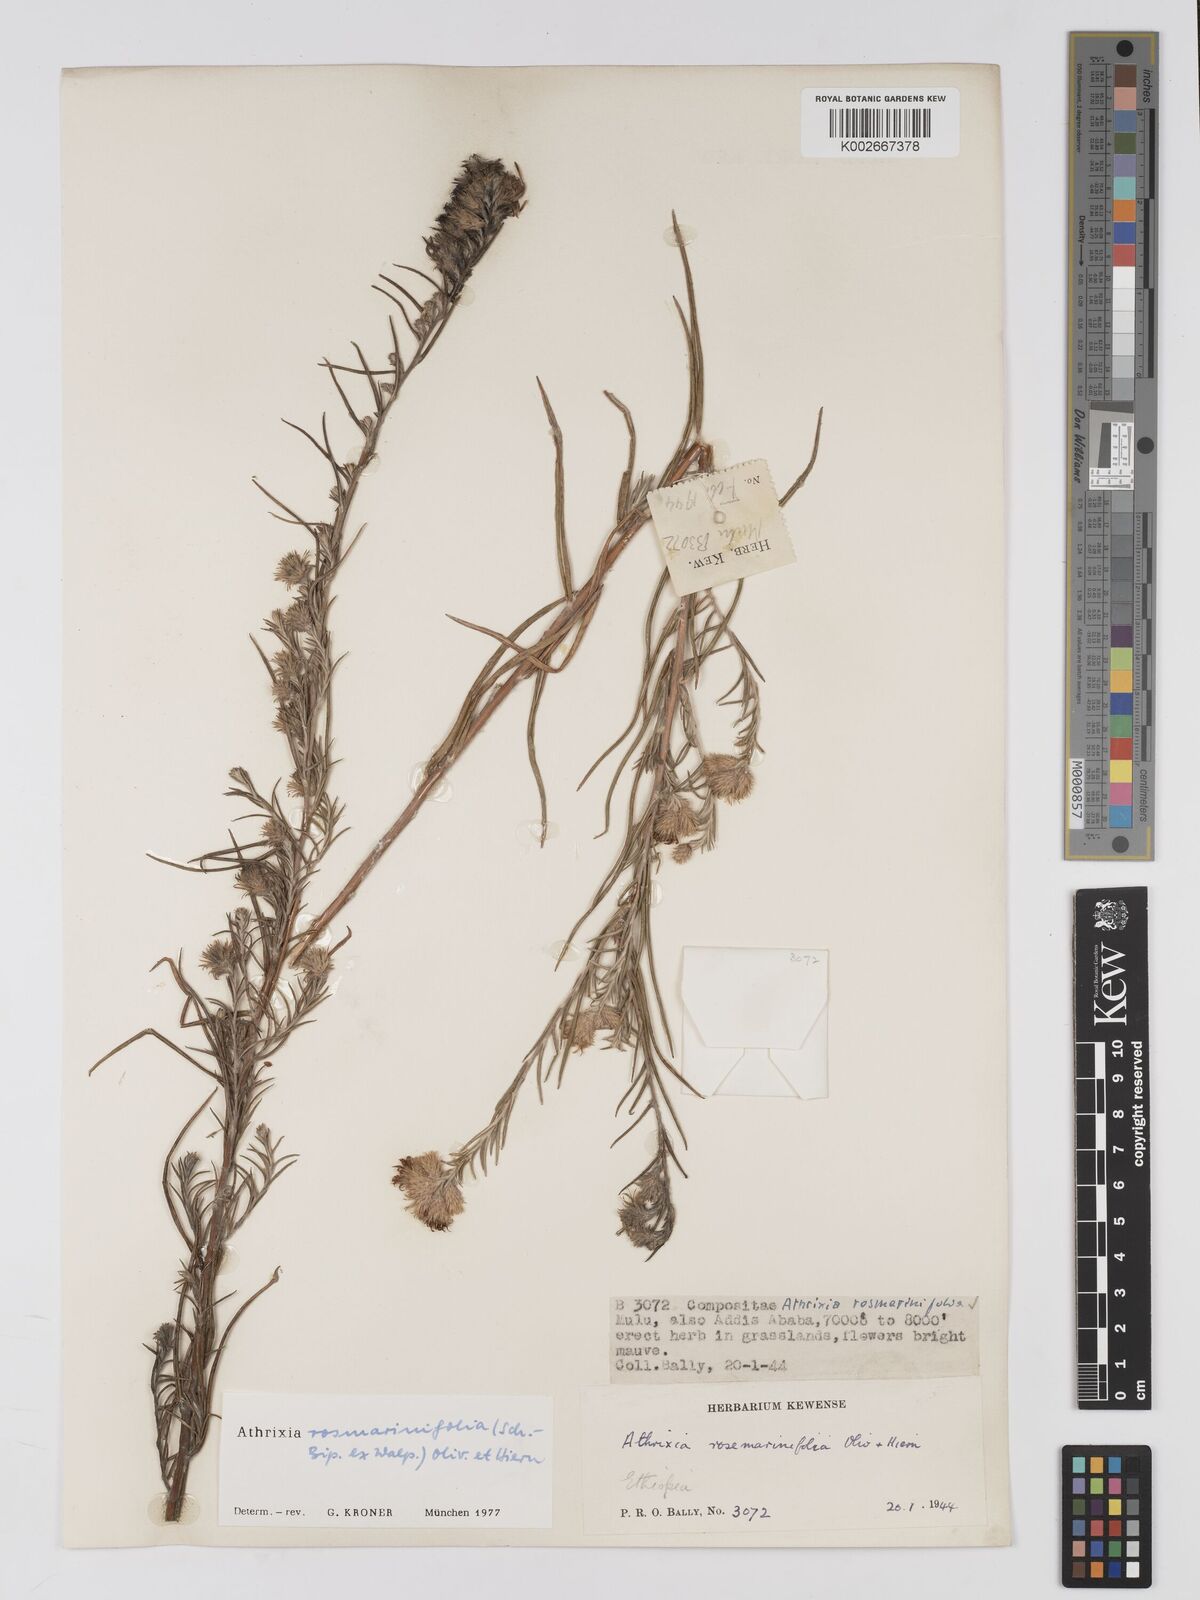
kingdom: Plantae
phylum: Tracheophyta
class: Magnoliopsida
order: Asterales
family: Asteraceae
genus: Athrixia
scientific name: Athrixia rosmarinifolia
